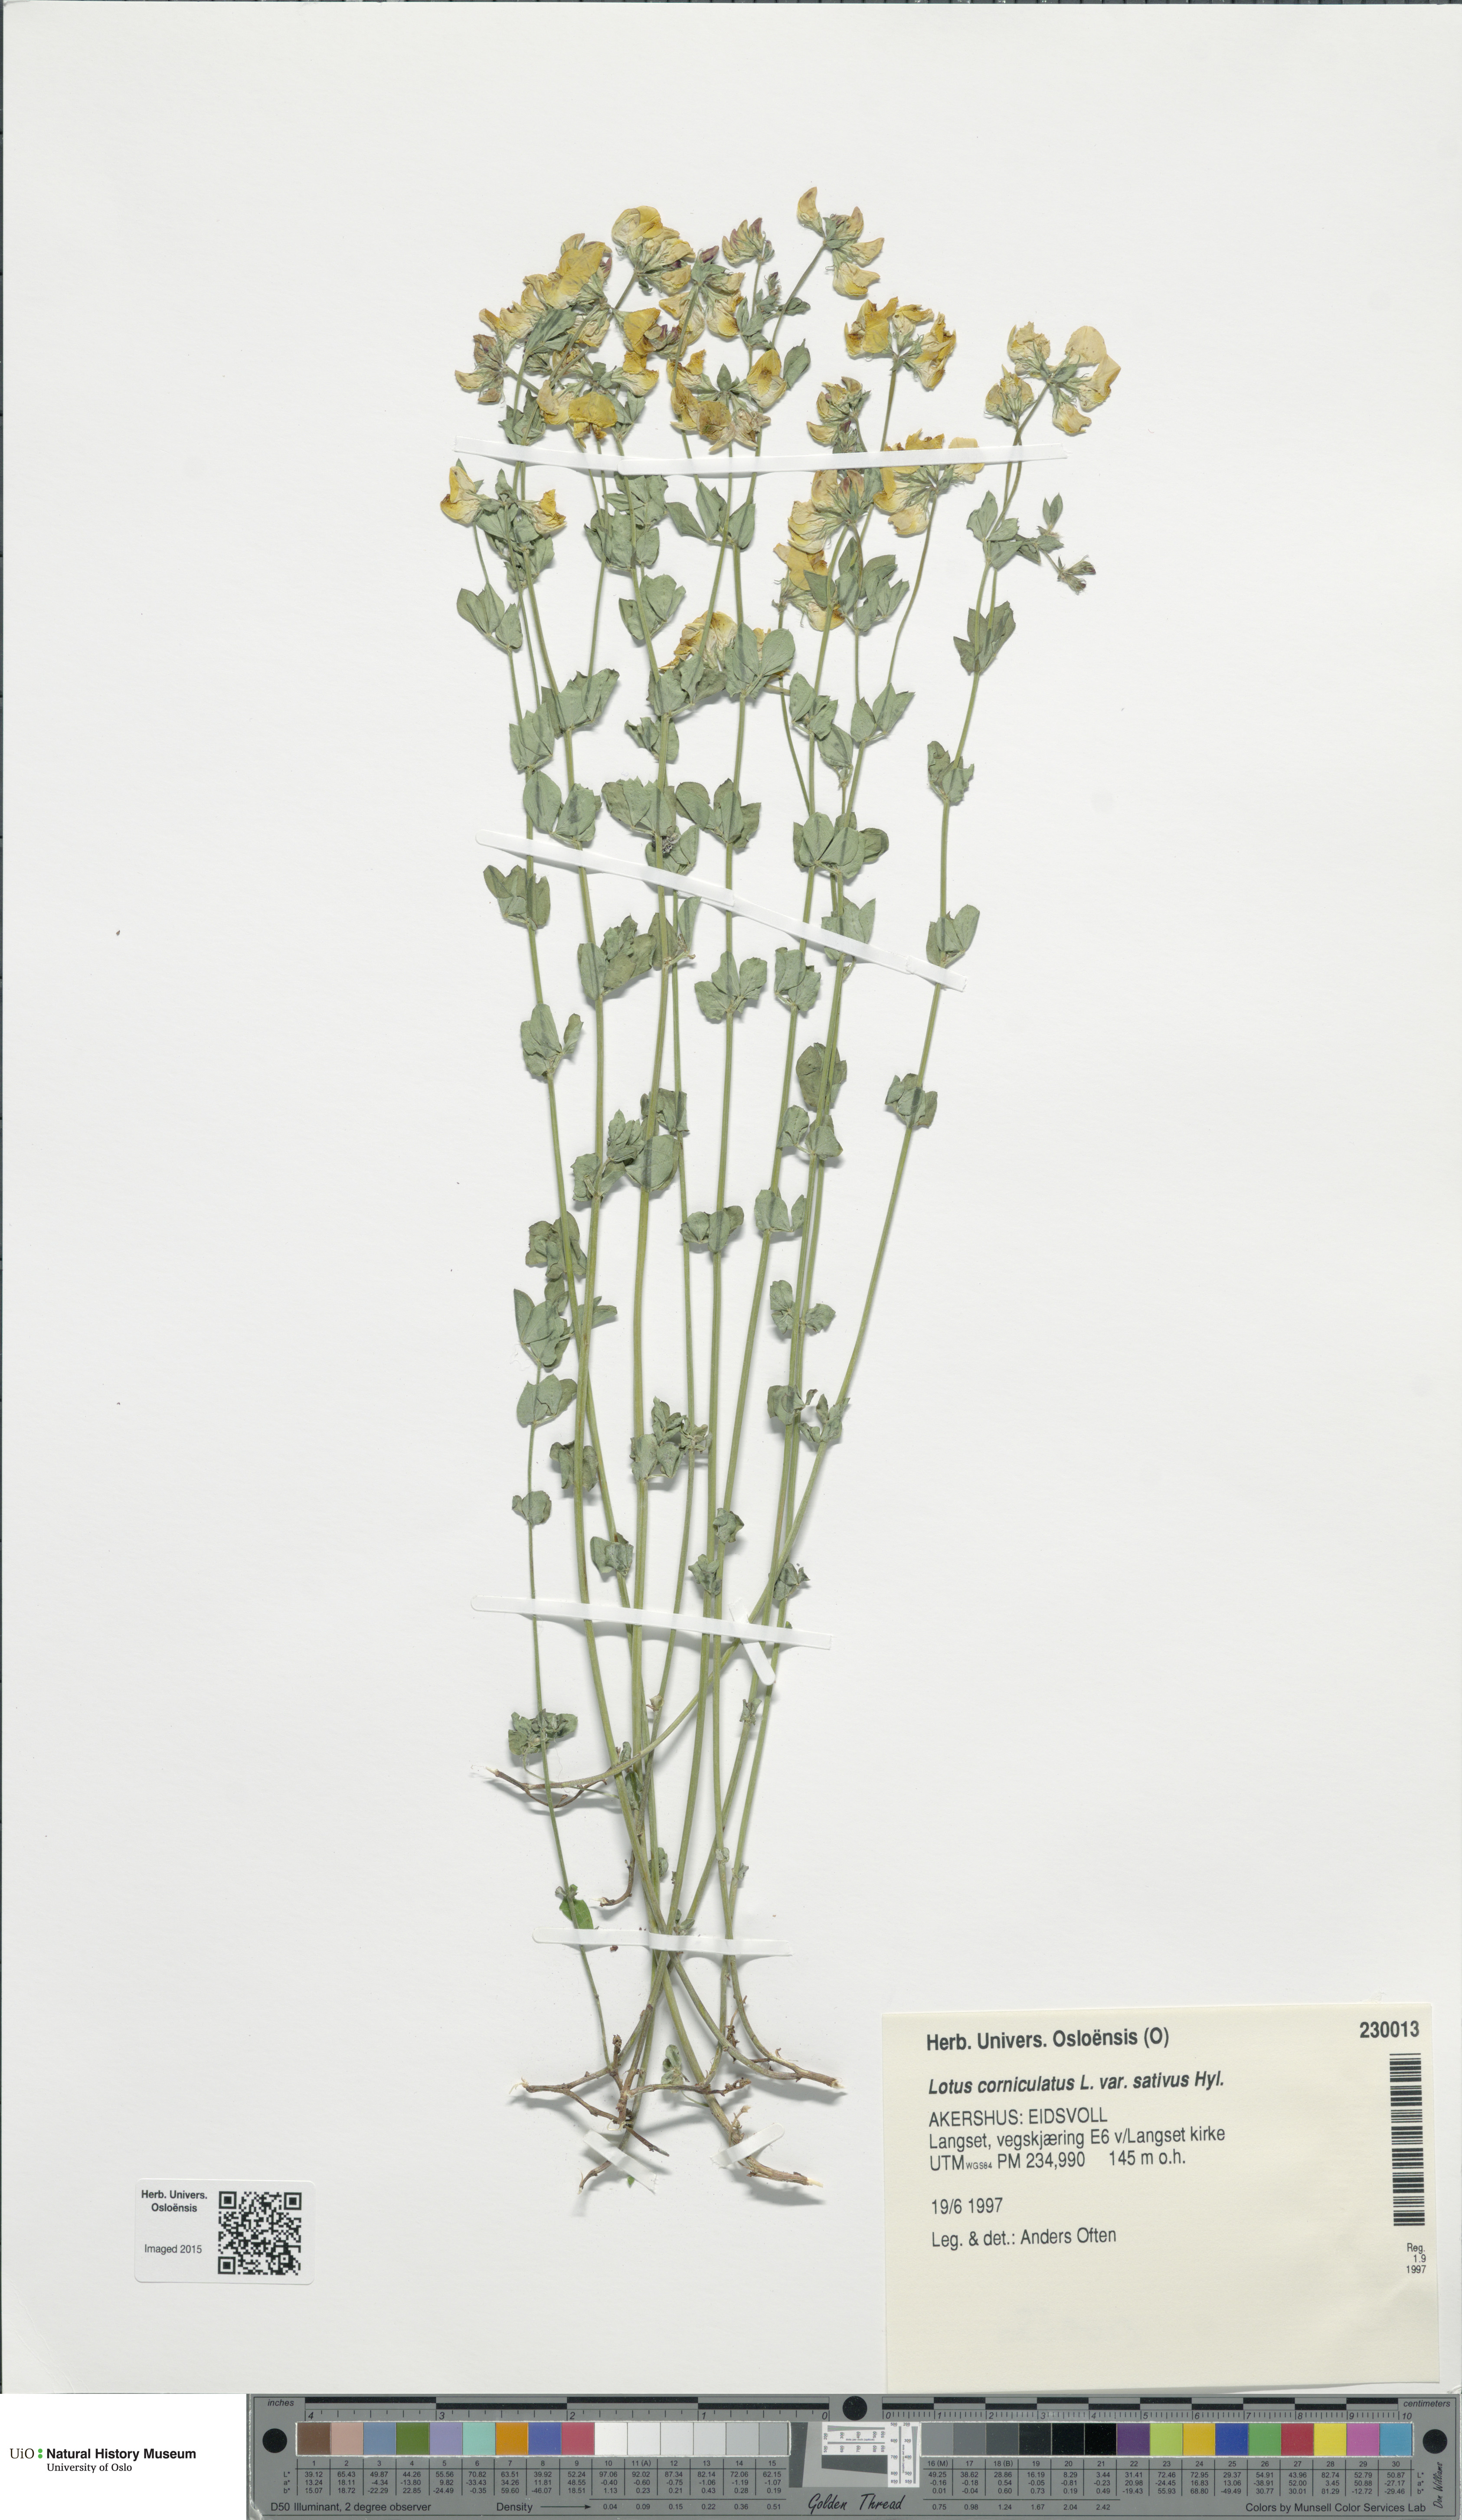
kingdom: Plantae
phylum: Tracheophyta
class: Magnoliopsida
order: Fabales
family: Fabaceae
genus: Lotus
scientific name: Lotus corniculatus
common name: Common bird's-foot-trefoil
